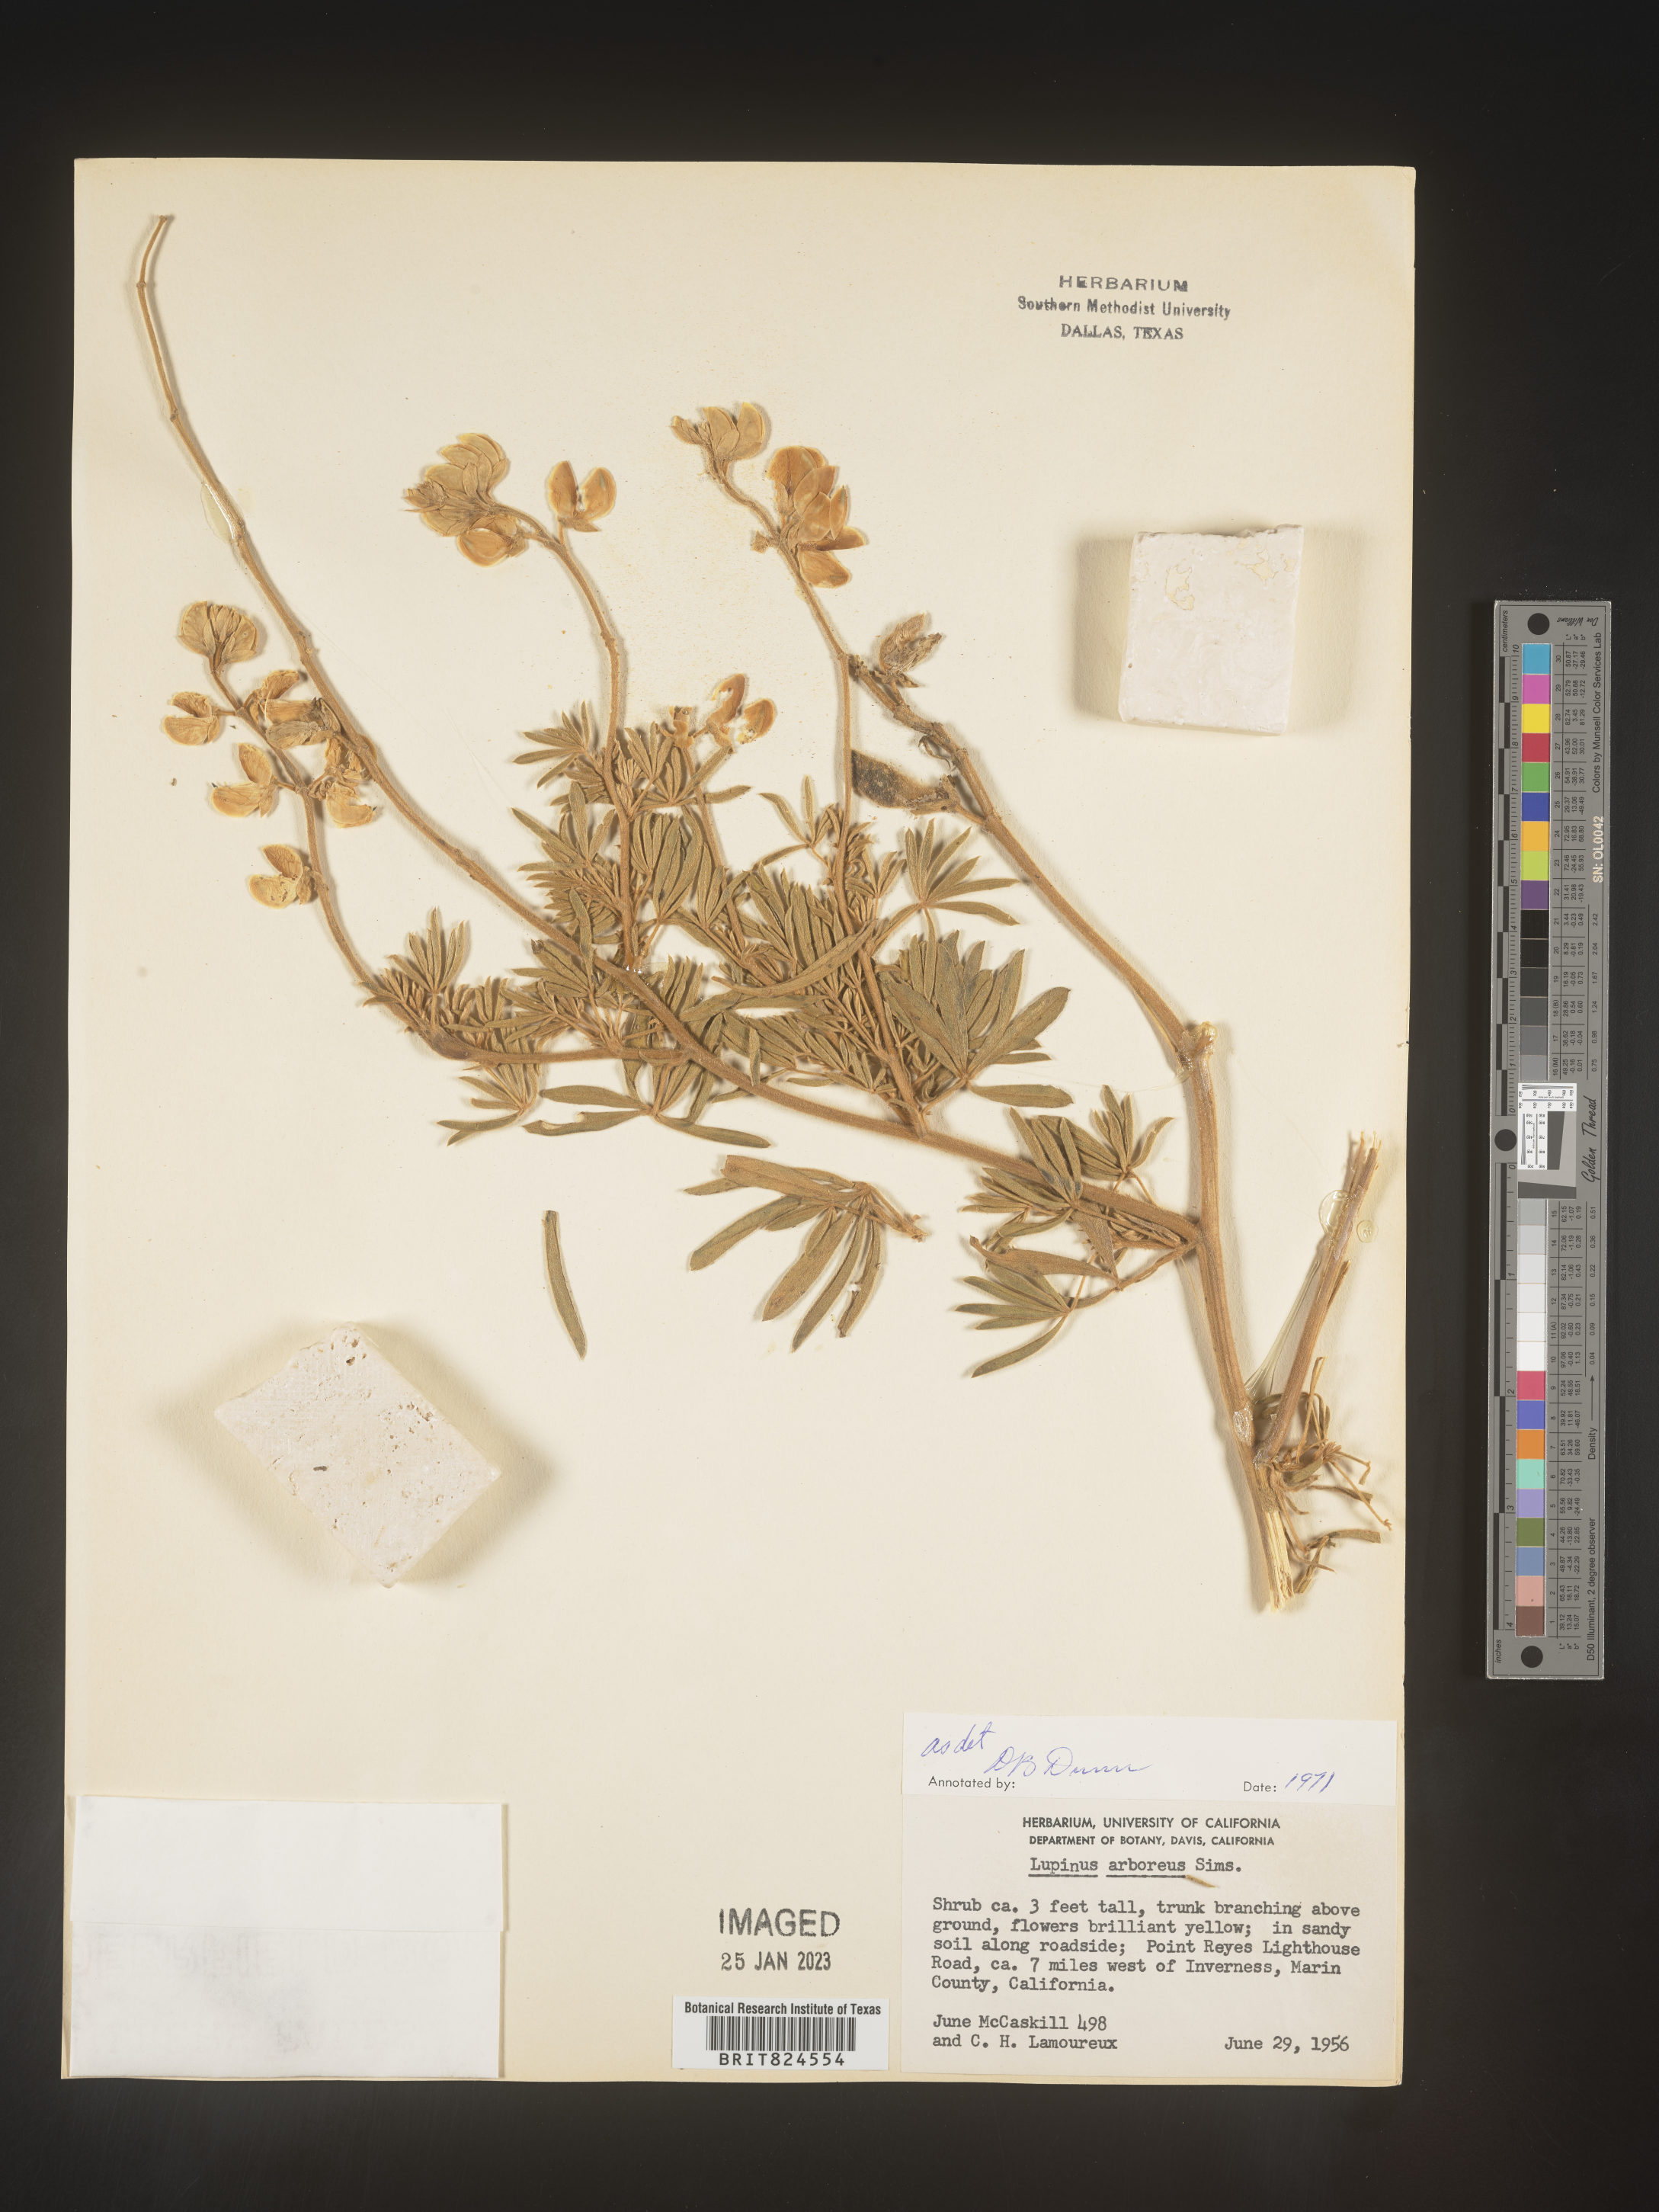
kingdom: Plantae
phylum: Tracheophyta
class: Magnoliopsida
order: Fabales
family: Fabaceae
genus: Lupinus
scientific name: Lupinus arboreus
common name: Yellow bush lupine
